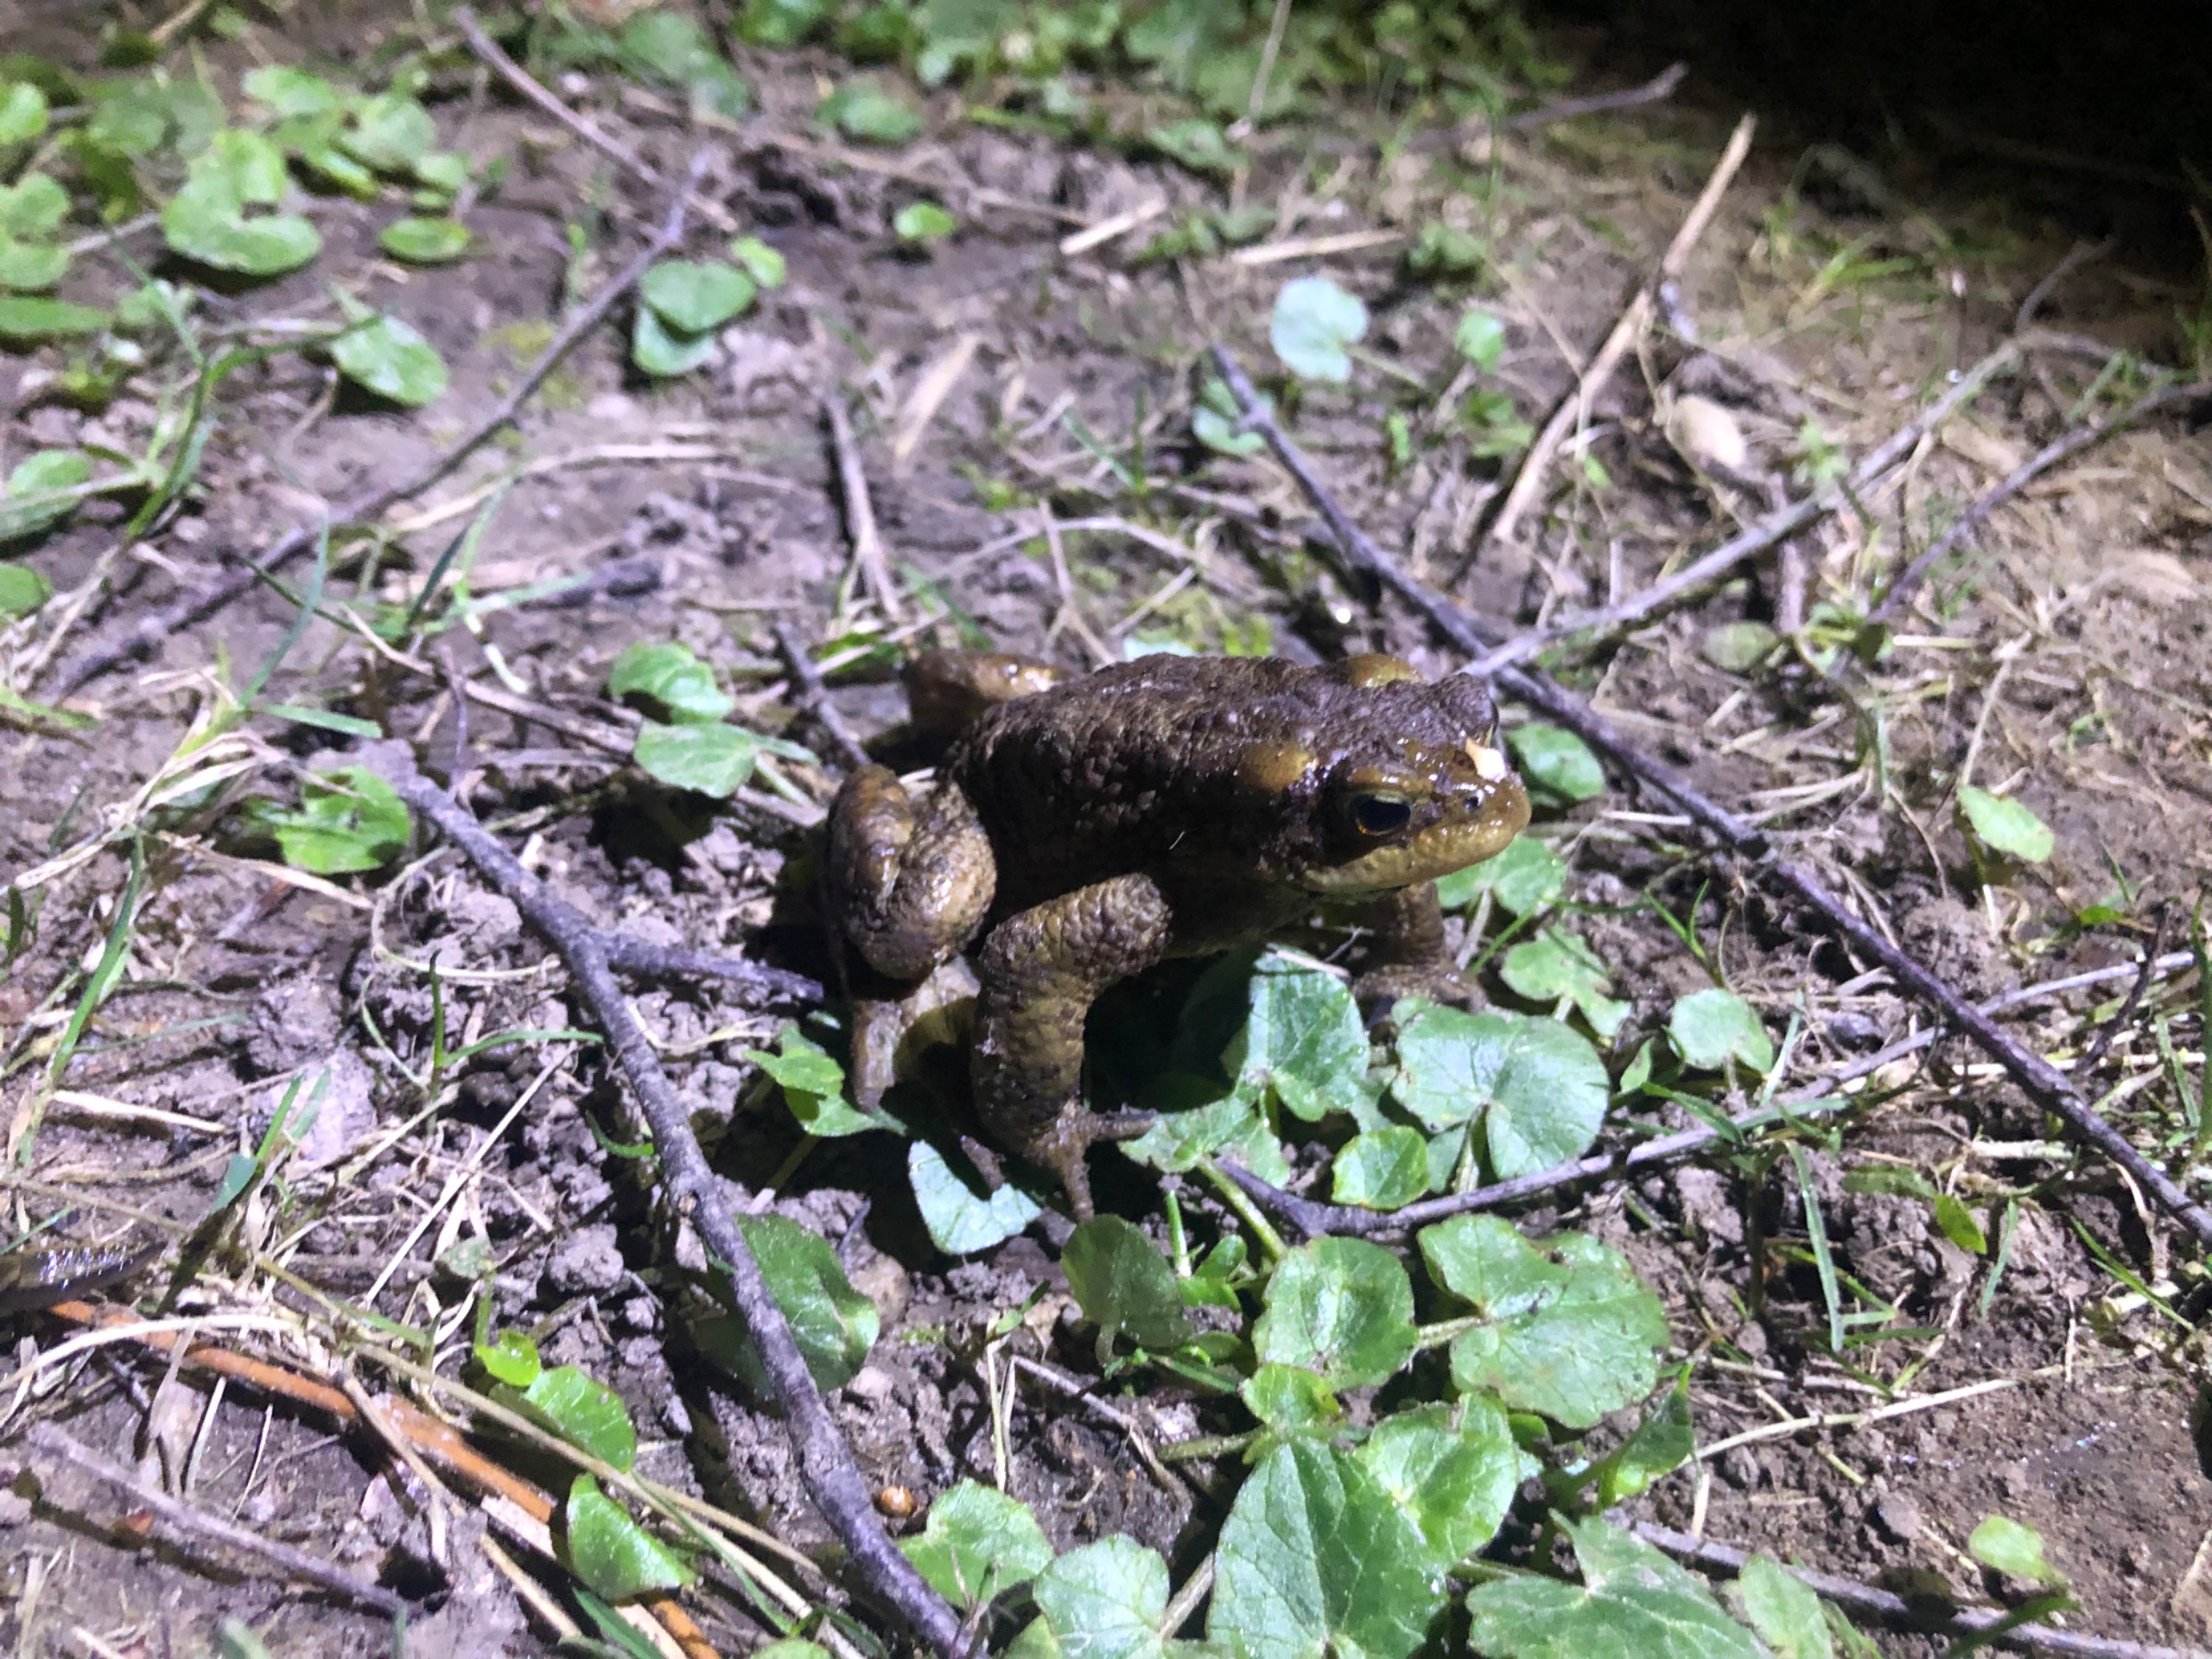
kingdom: Animalia
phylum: Chordata
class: Amphibia
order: Anura
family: Bufonidae
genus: Bufo
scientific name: Bufo bufo
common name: Skrubtudse
